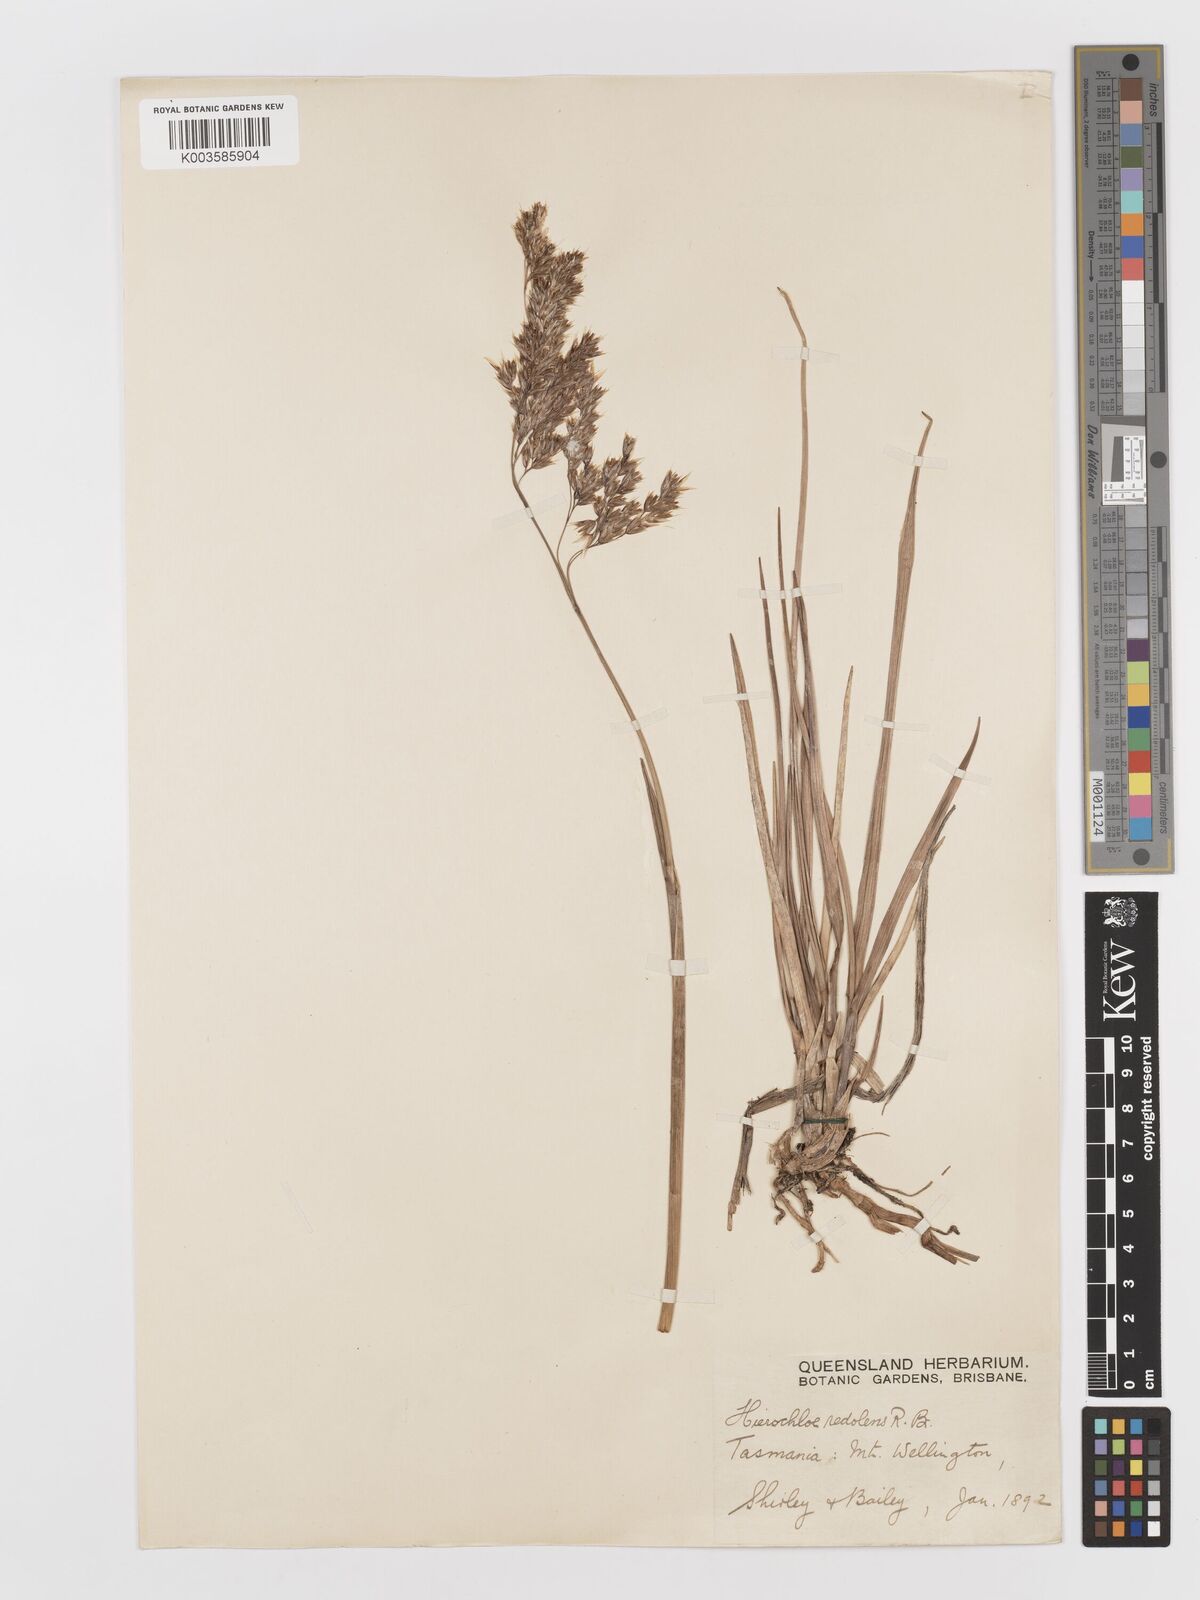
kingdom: Plantae
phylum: Tracheophyta
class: Liliopsida
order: Poales
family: Poaceae
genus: Anthoxanthum
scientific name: Anthoxanthum redolens
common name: Sweet holy grass
